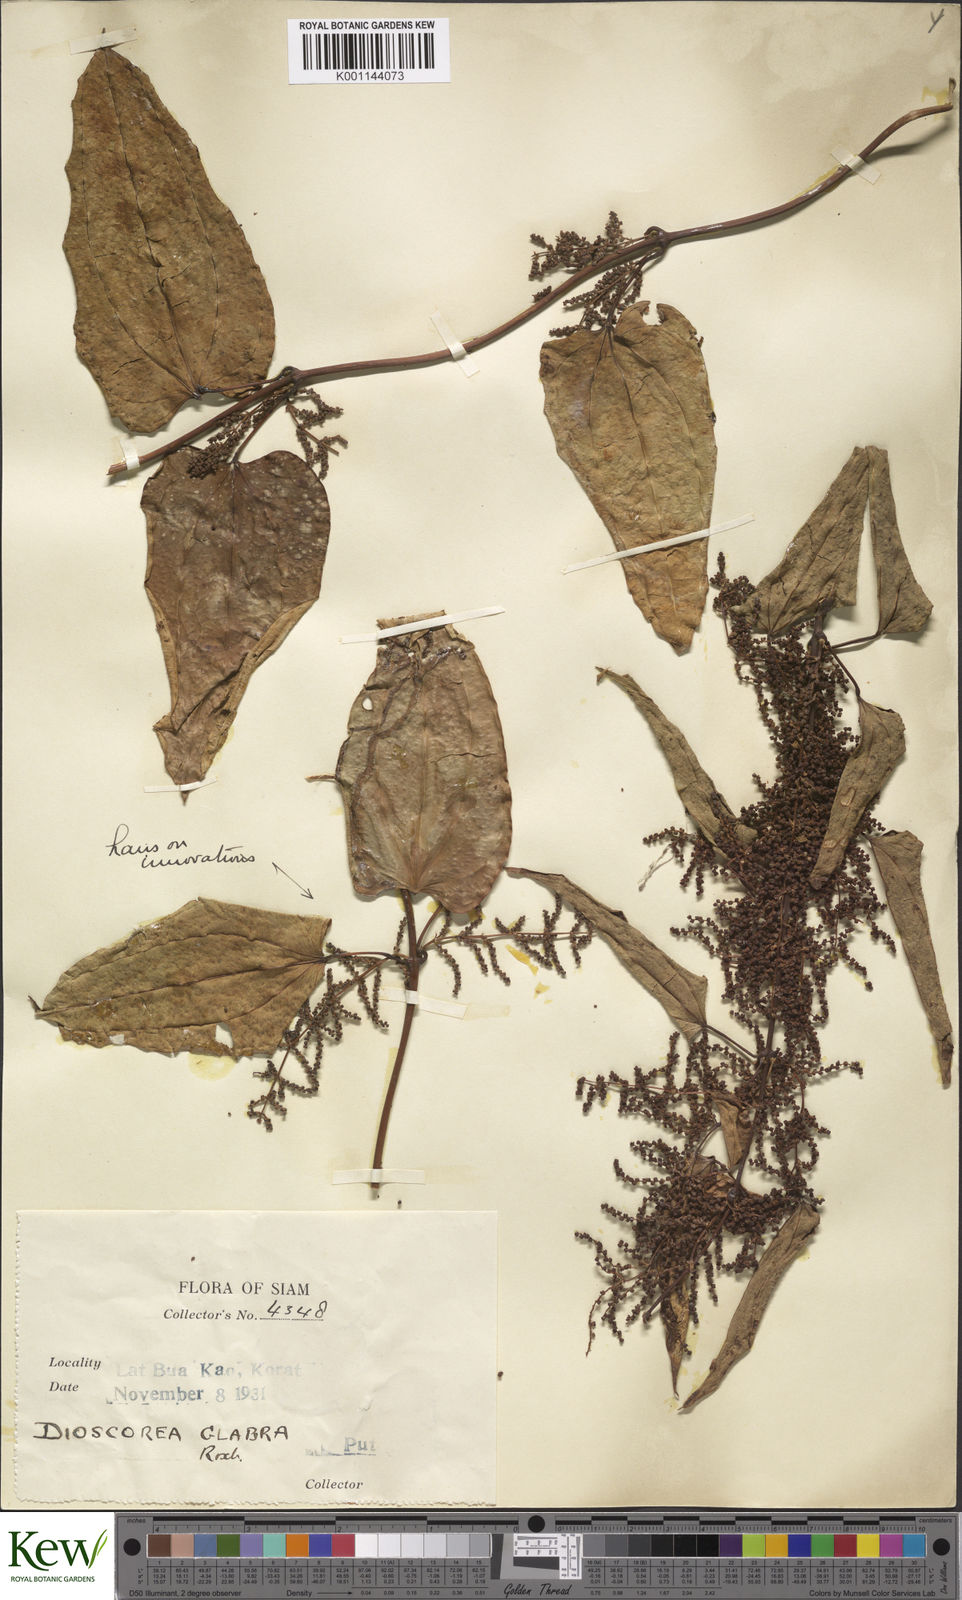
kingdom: Plantae
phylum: Tracheophyta
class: Liliopsida
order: Dioscoreales
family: Dioscoreaceae
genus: Dioscorea
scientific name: Dioscorea glabra
